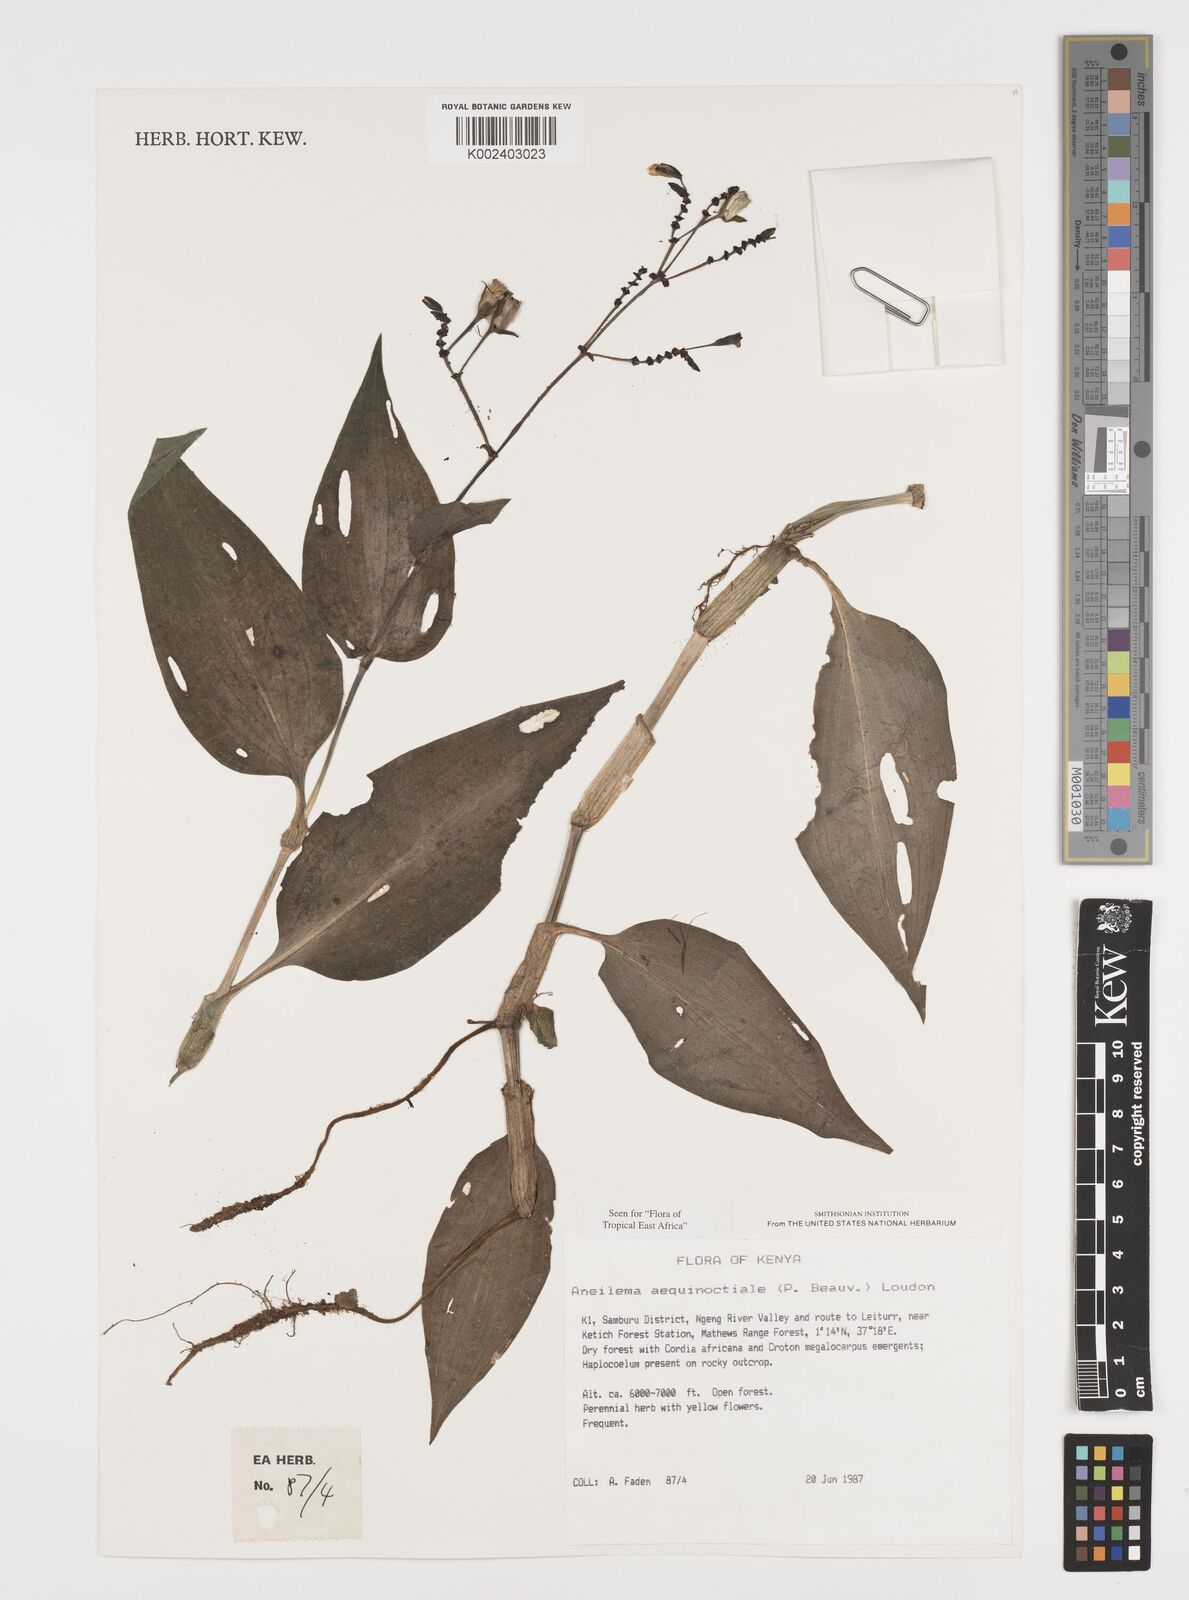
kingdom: Plantae
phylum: Tracheophyta
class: Liliopsida
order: Commelinales
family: Commelinaceae
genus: Aneilema
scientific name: Aneilema aequinoctiale
